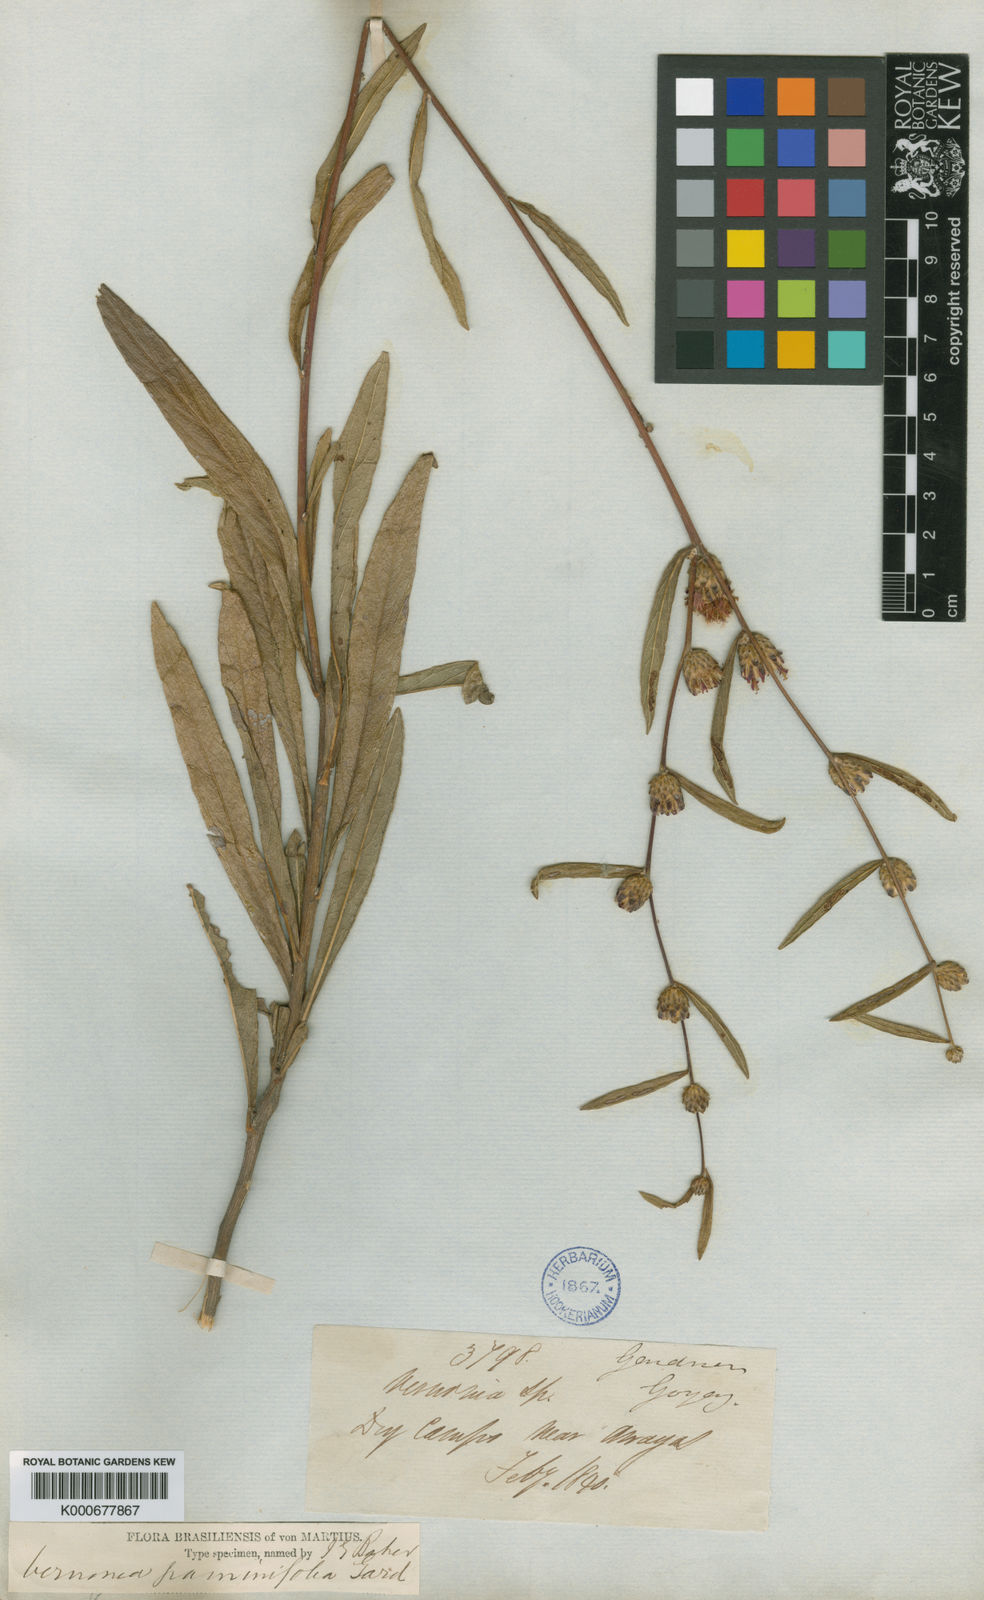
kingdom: Plantae
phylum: Tracheophyta
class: Magnoliopsida
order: Asterales
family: Asteraceae
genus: Lessingianthus
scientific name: Lessingianthus graminifolius
